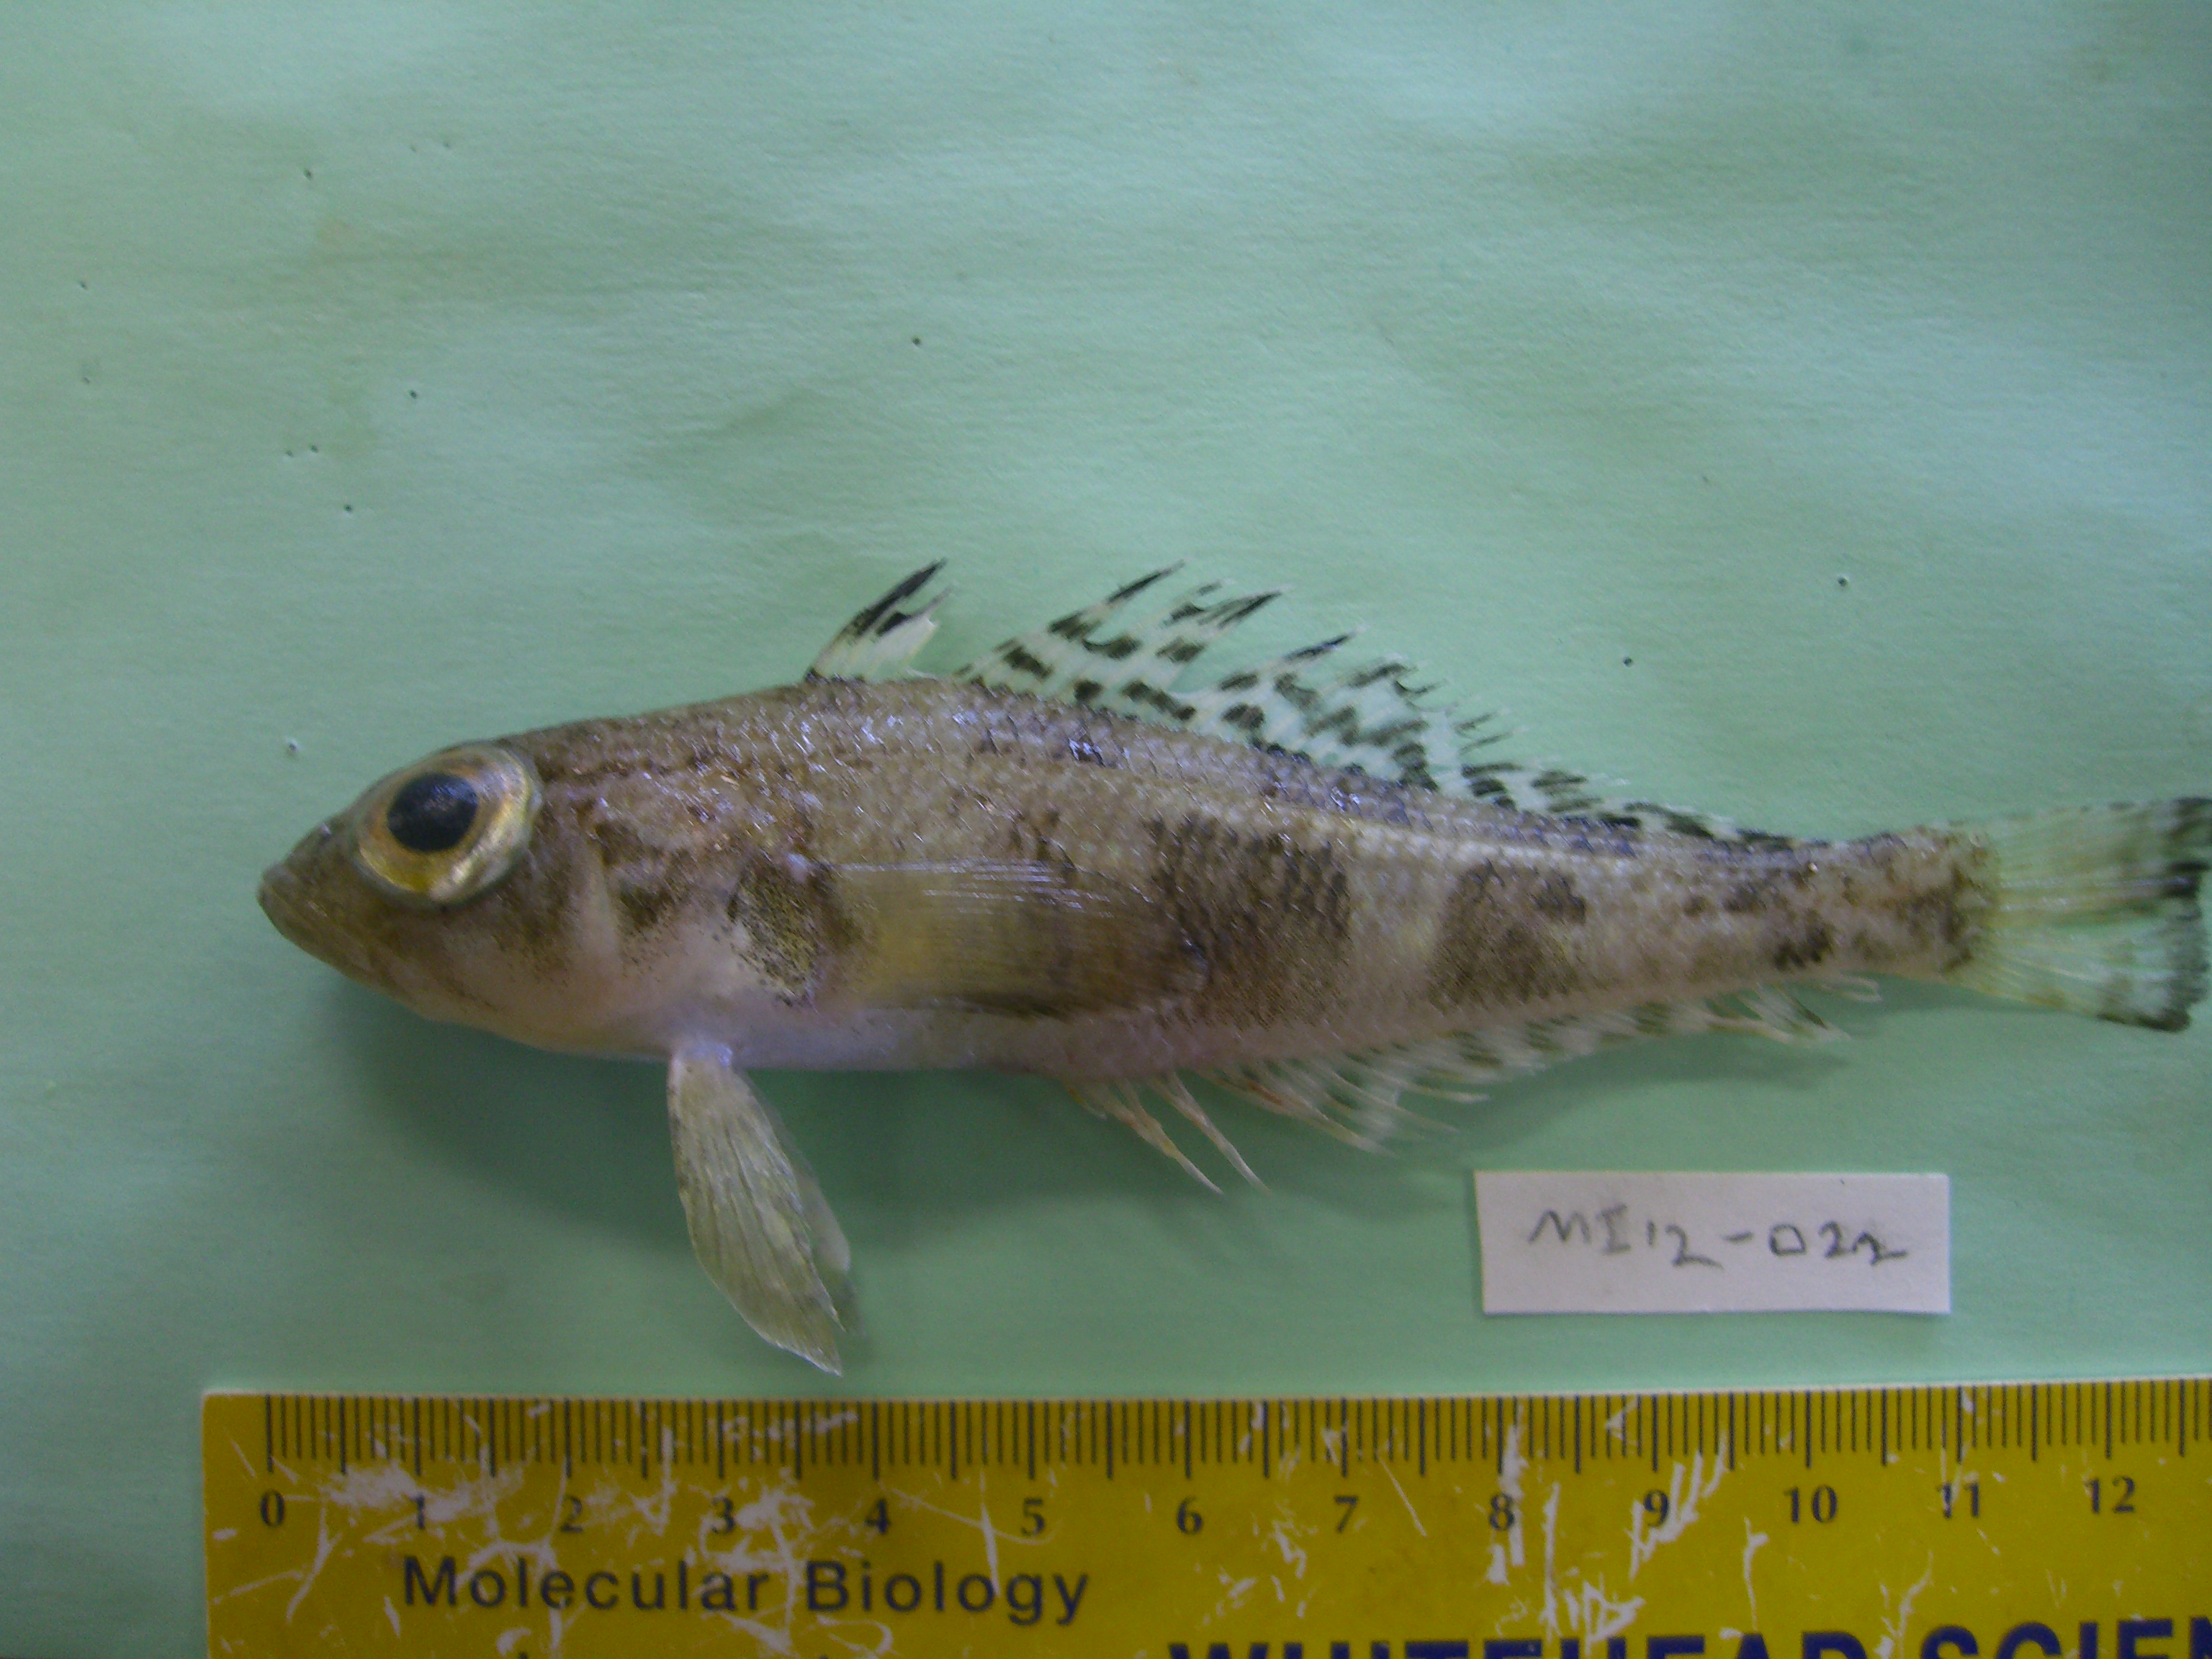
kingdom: Animalia
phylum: Chordata
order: Perciformes
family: Nototheniidae
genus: Nototheniops
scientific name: Nototheniops larseni
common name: Painted notie
